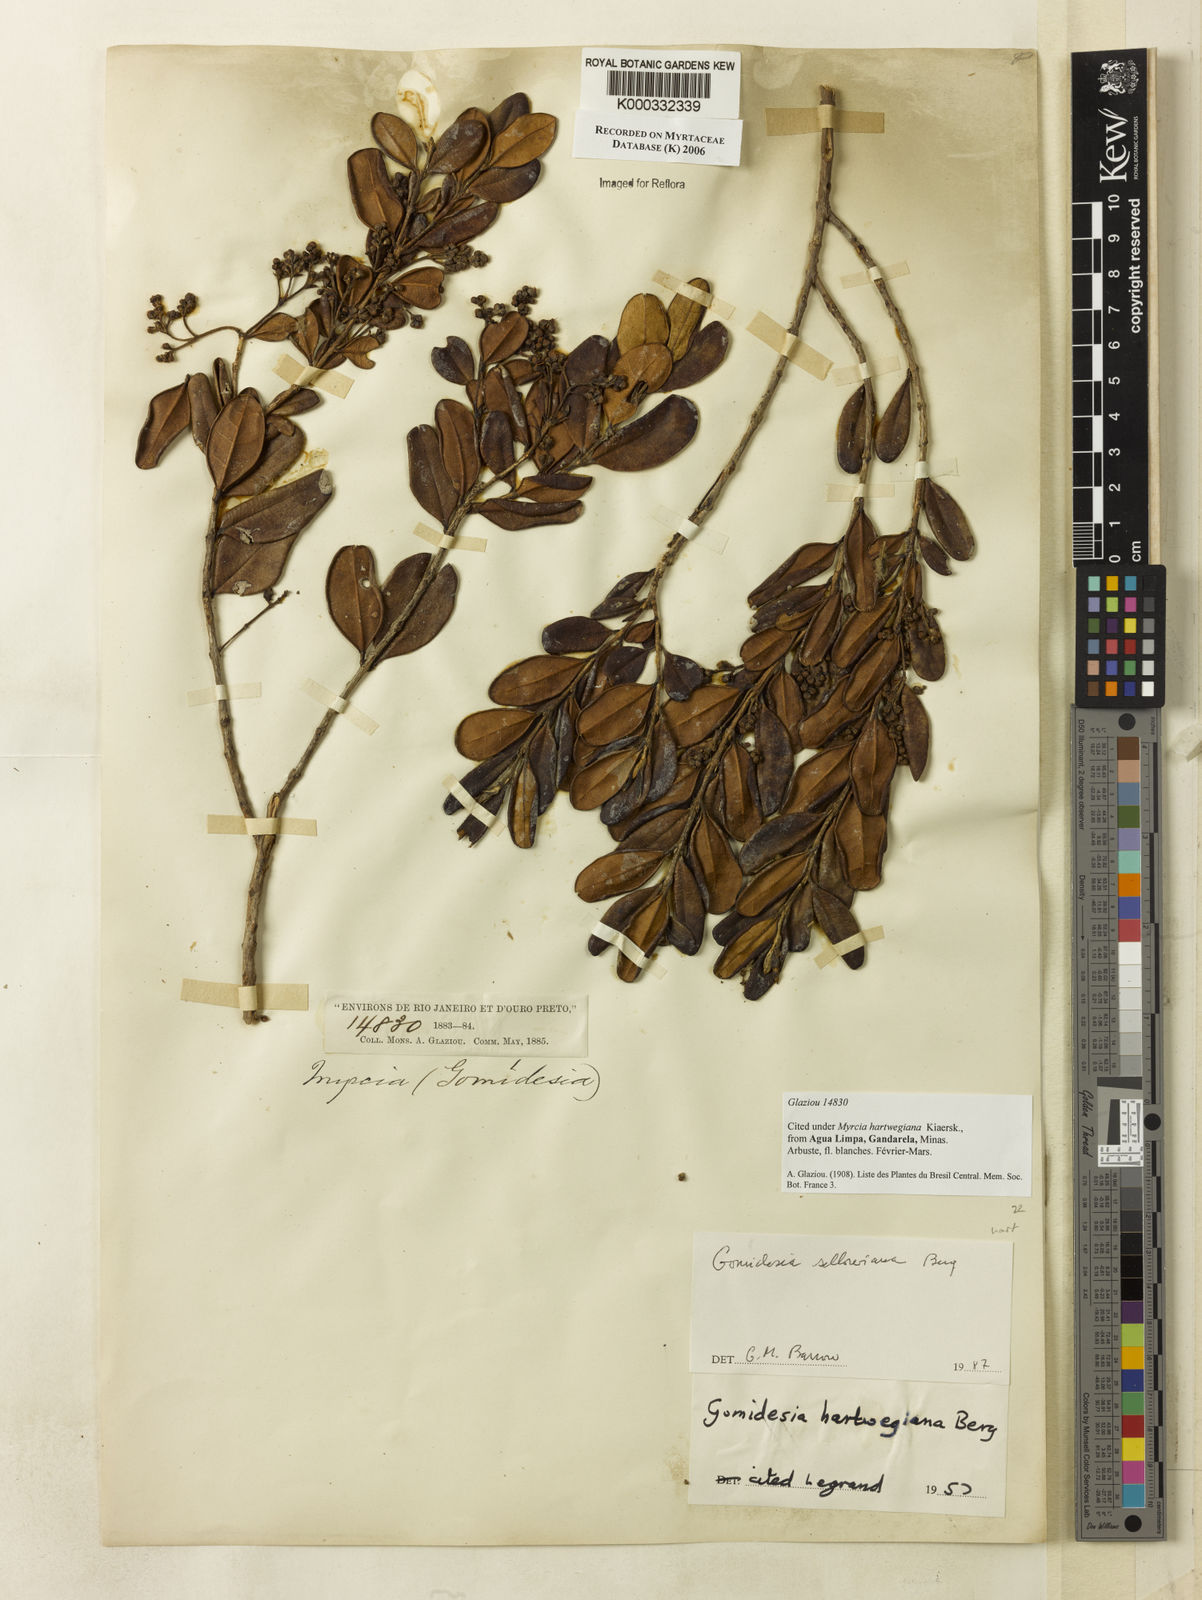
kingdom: Plantae
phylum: Tracheophyta
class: Magnoliopsida
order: Myrtales
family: Myrtaceae
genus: Myrcia
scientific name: Myrcia hartwegiana
